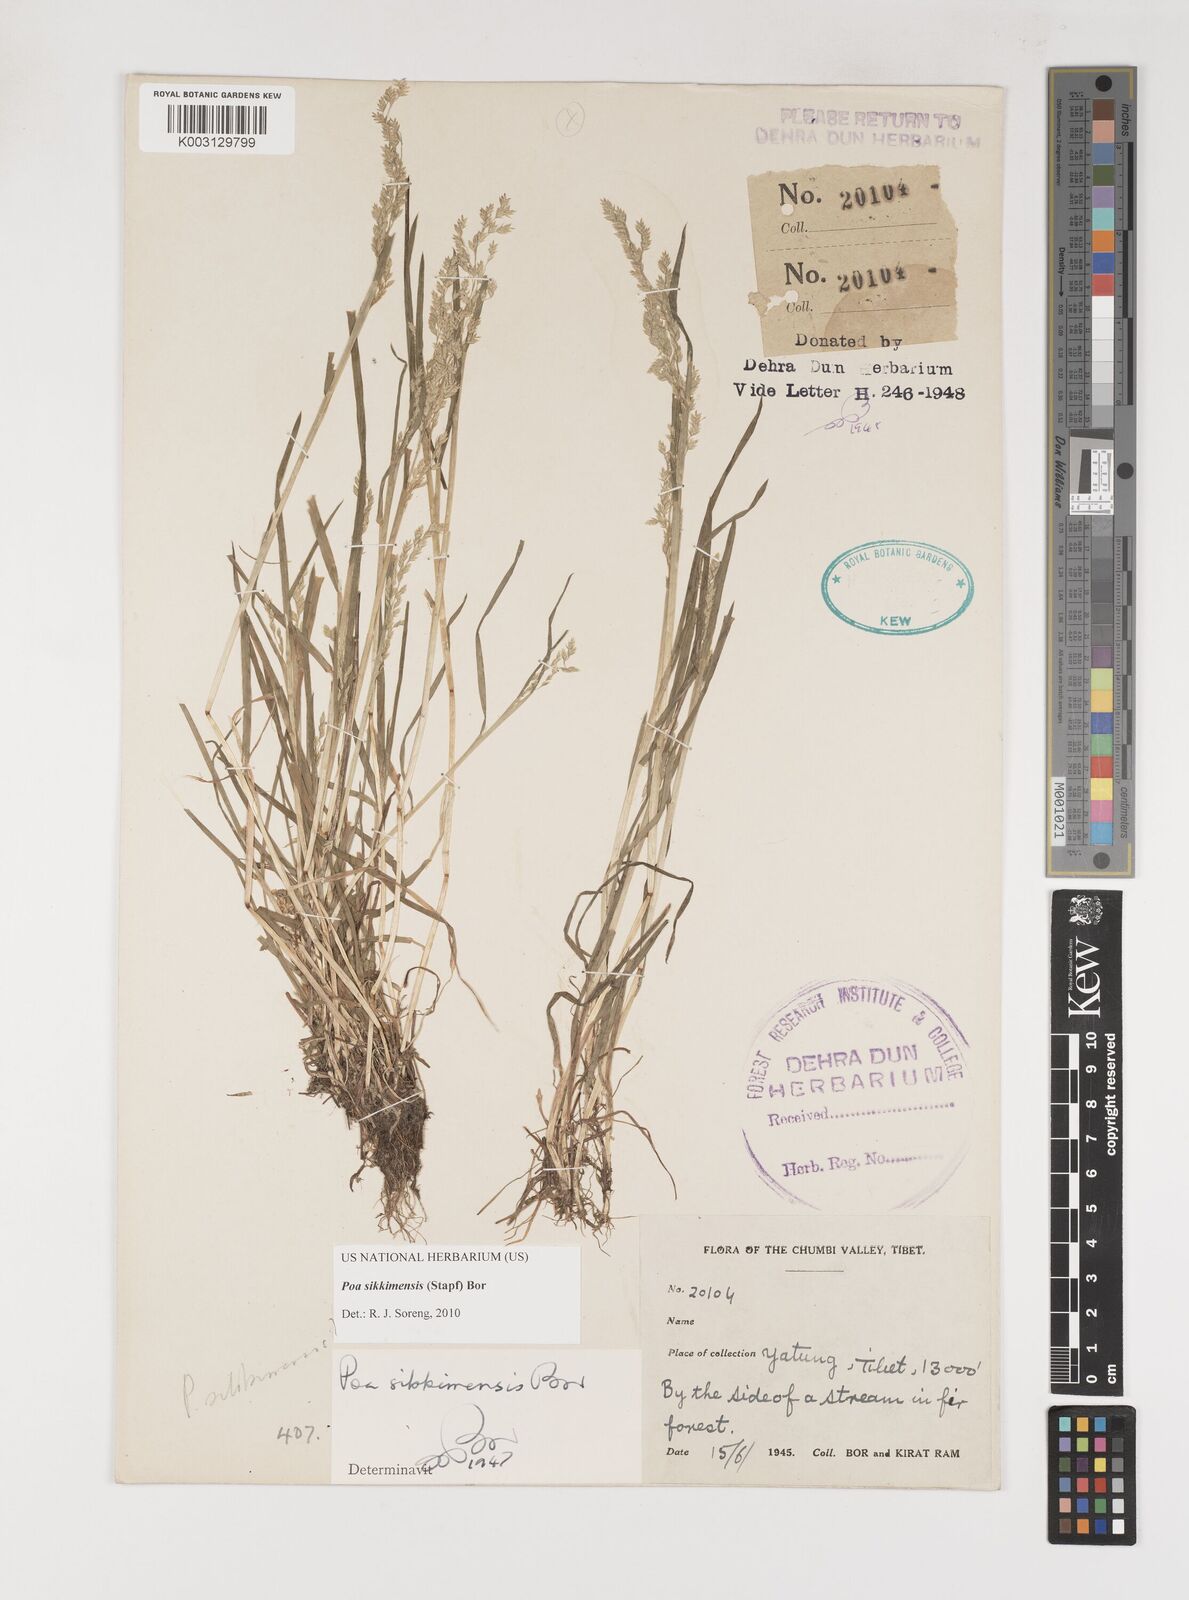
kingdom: Plantae
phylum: Tracheophyta
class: Liliopsida
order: Poales
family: Poaceae
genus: Poa
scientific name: Poa sikkimensis
